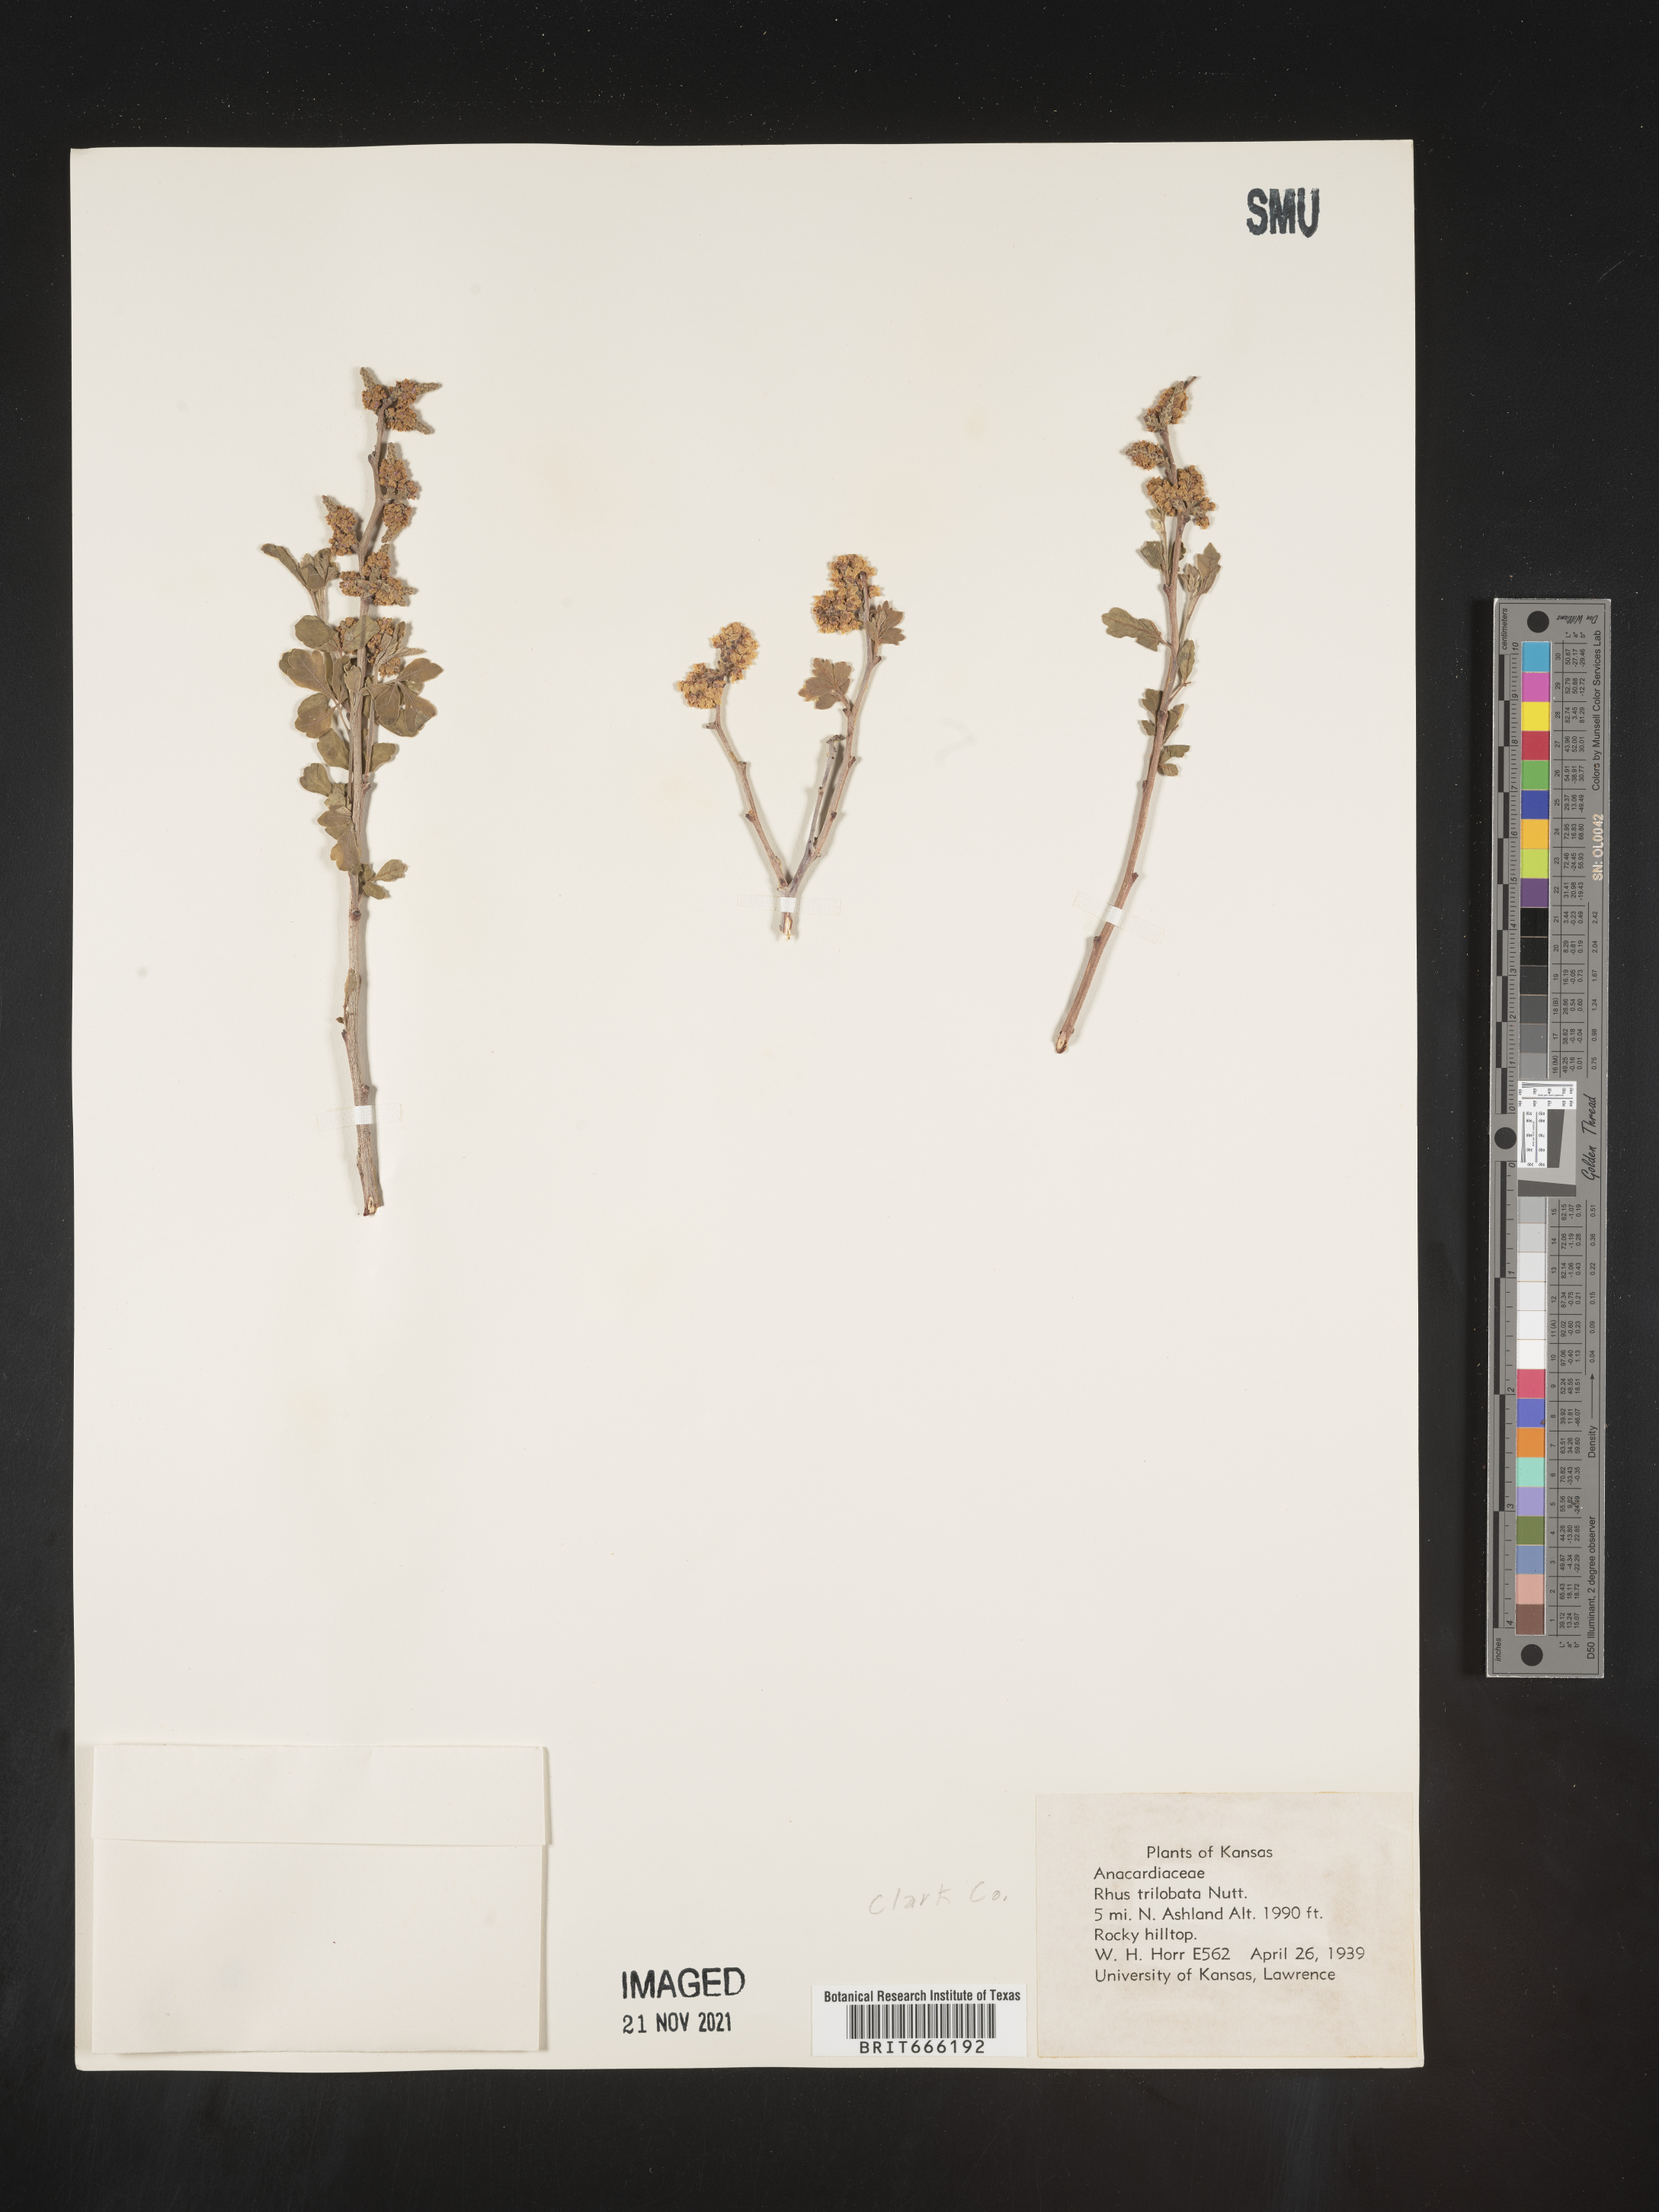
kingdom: Plantae
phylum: Tracheophyta
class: Magnoliopsida
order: Sapindales
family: Anacardiaceae
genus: Rhus
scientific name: Rhus trilobata
